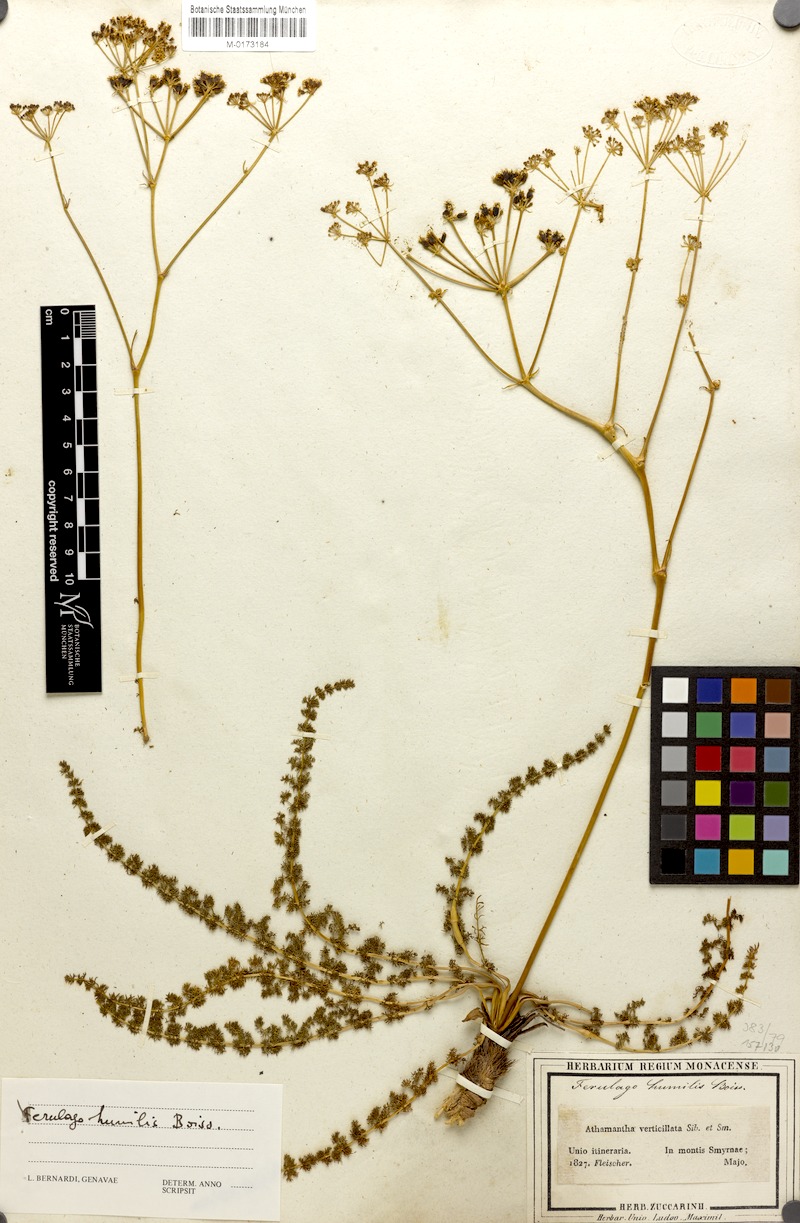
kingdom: Plantae
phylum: Tracheophyta
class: Magnoliopsida
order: Apiales
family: Apiaceae
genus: Ferulago
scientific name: Ferulago humilis
